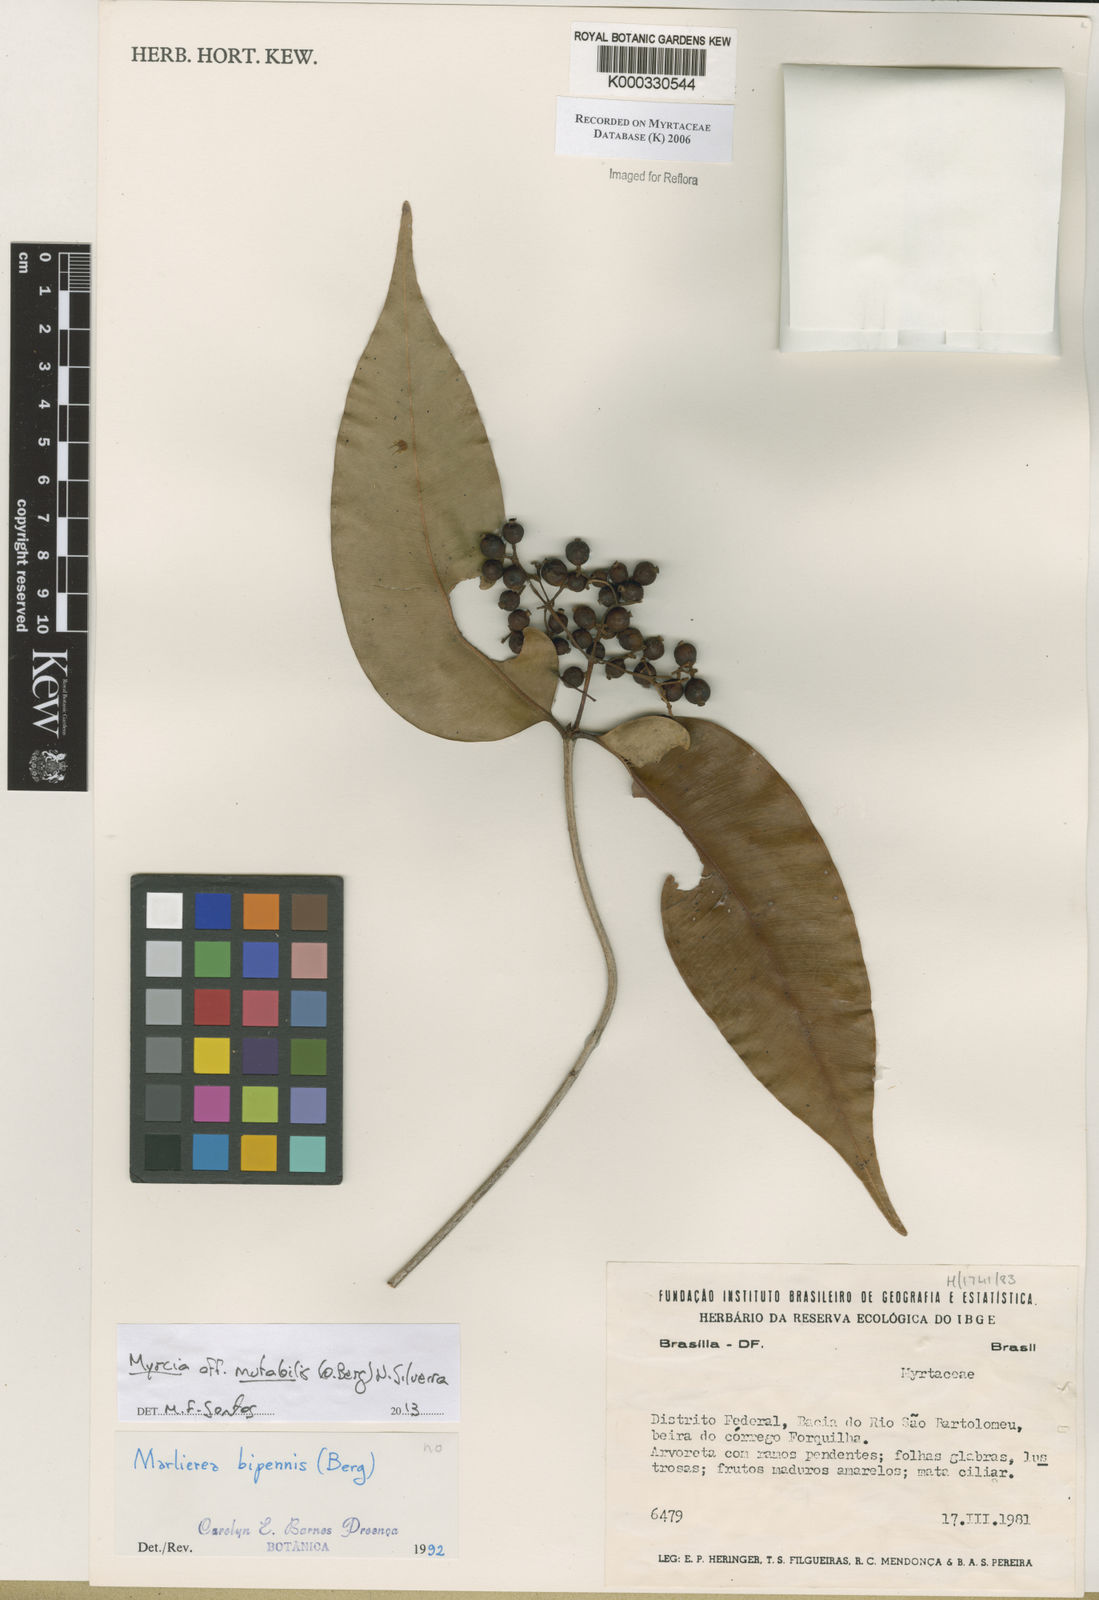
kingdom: Plantae
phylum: Tracheophyta
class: Magnoliopsida
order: Myrtales
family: Myrtaceae
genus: Myrcia
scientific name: Myrcia bipennis
